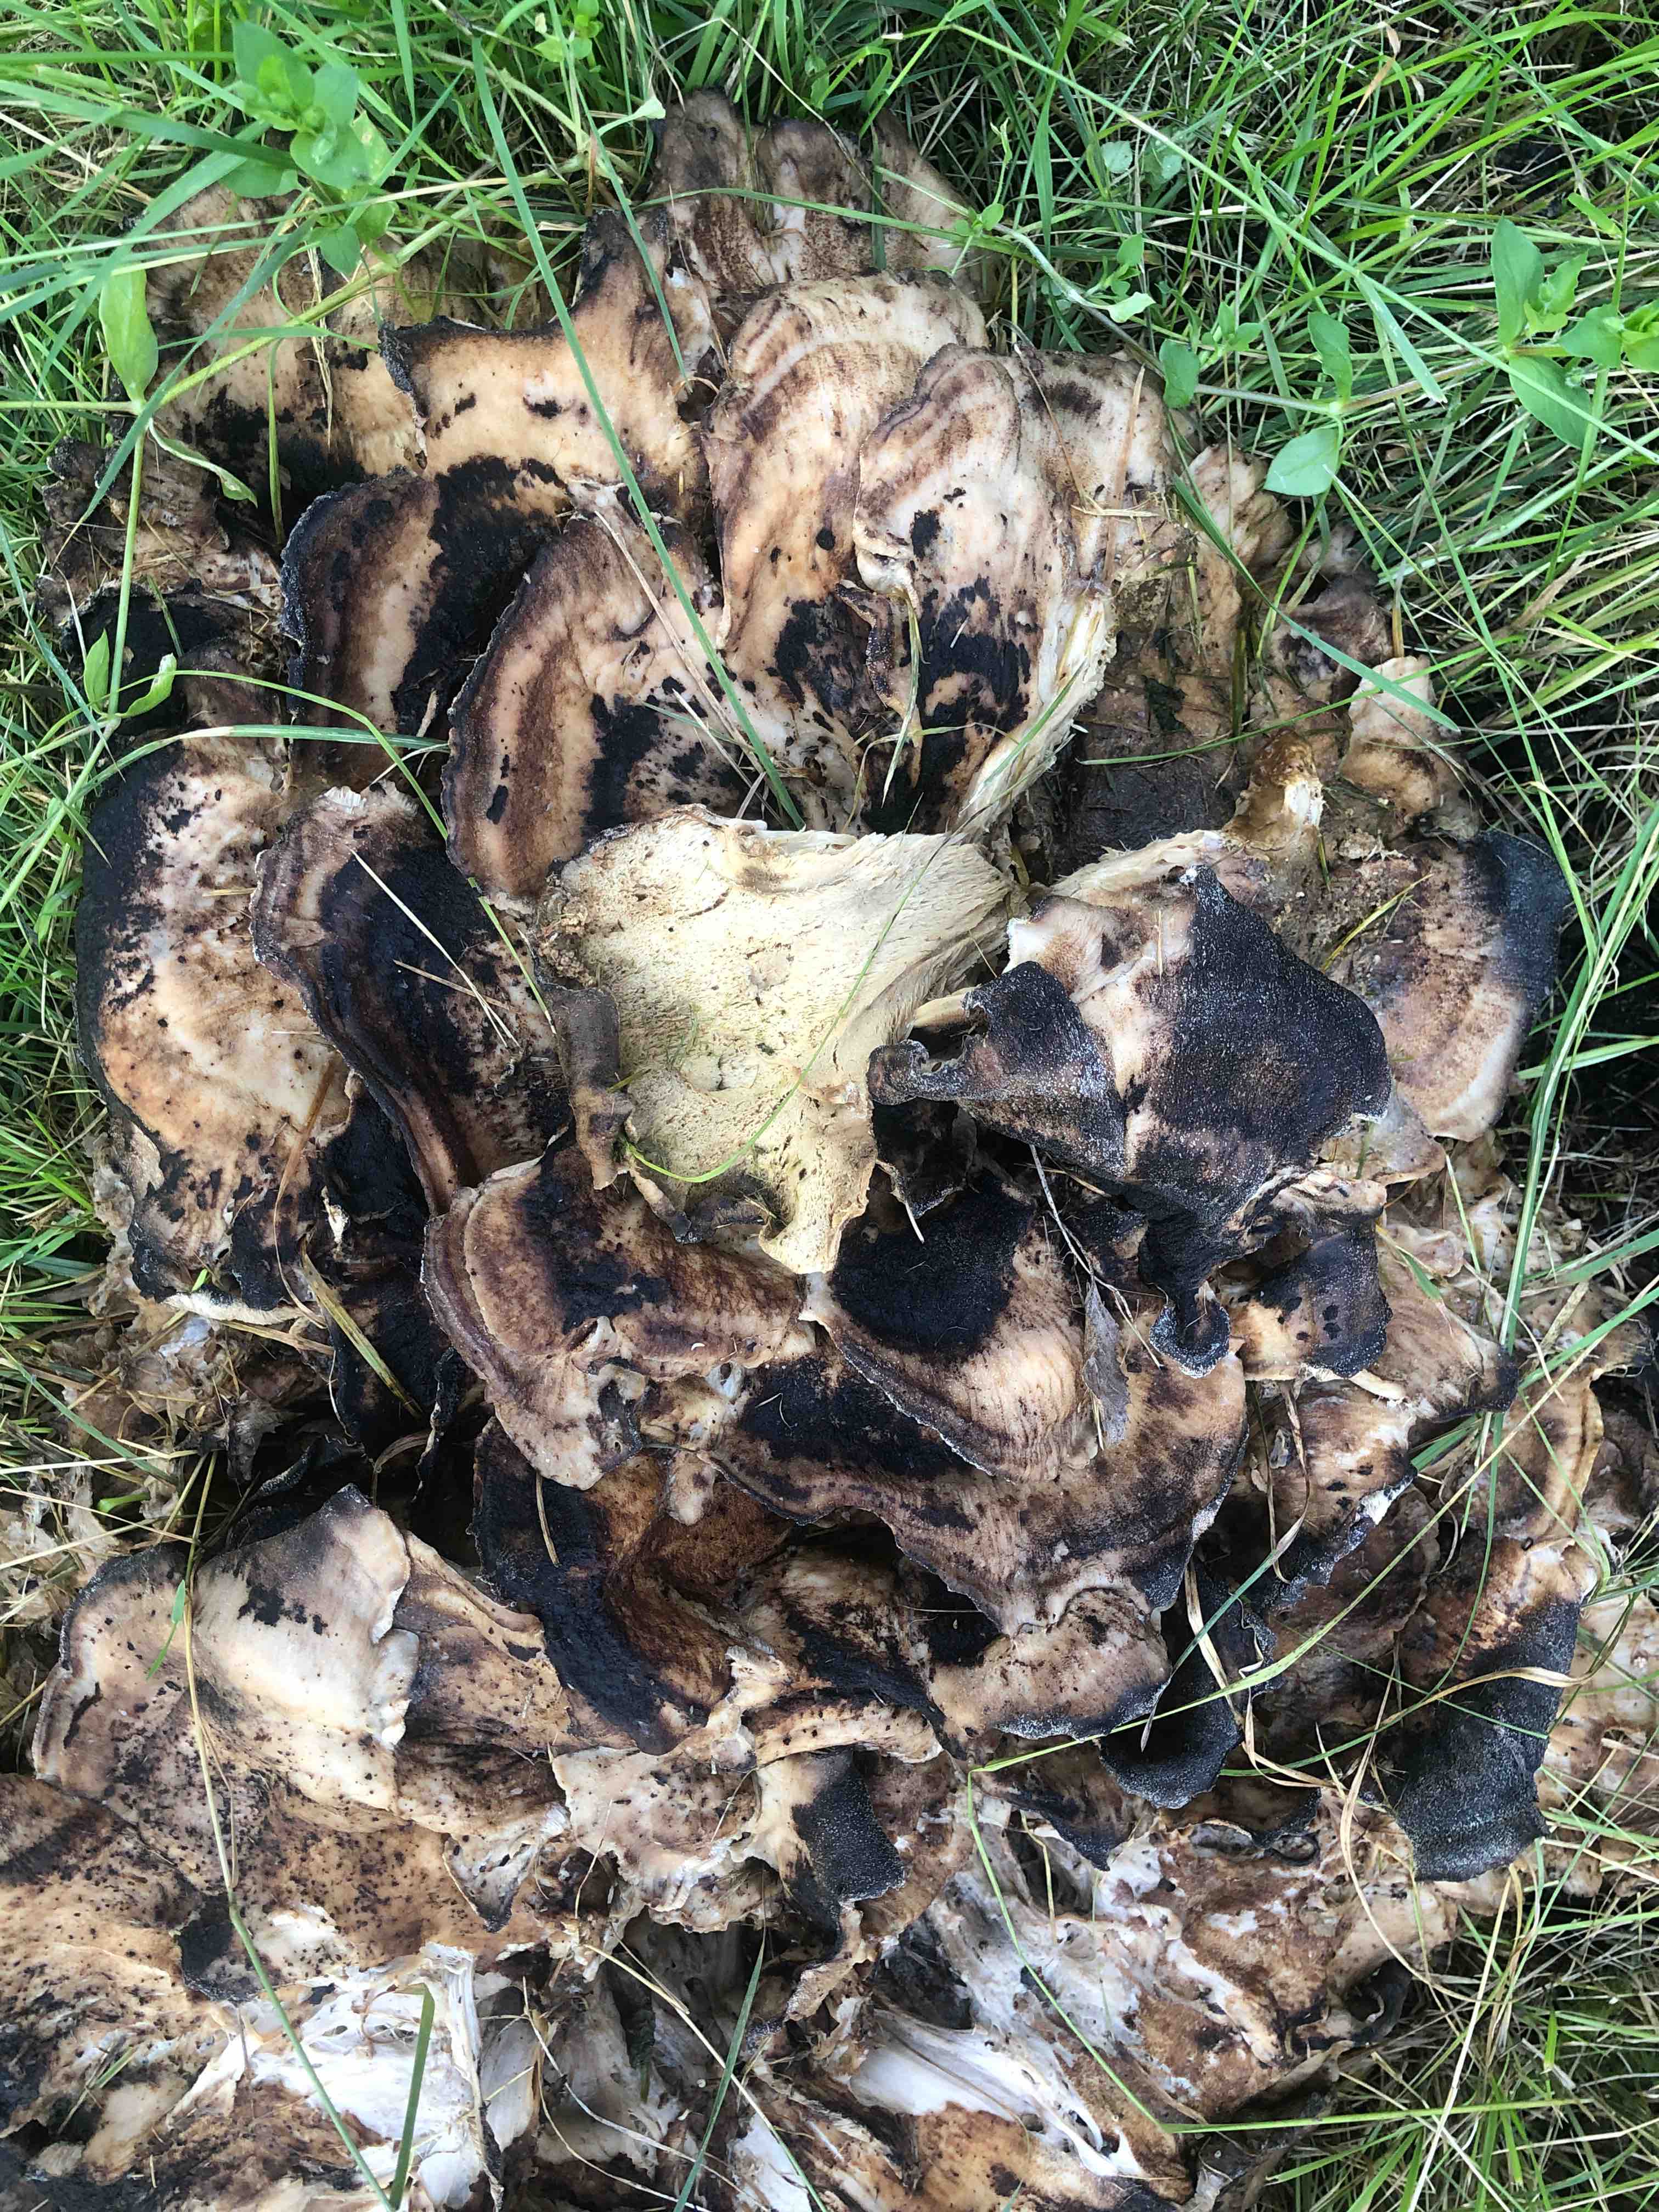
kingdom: Fungi
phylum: Basidiomycota
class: Agaricomycetes
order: Polyporales
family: Meripilaceae
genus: Meripilus
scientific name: Meripilus giganteus
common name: kæmpeporesvamp
